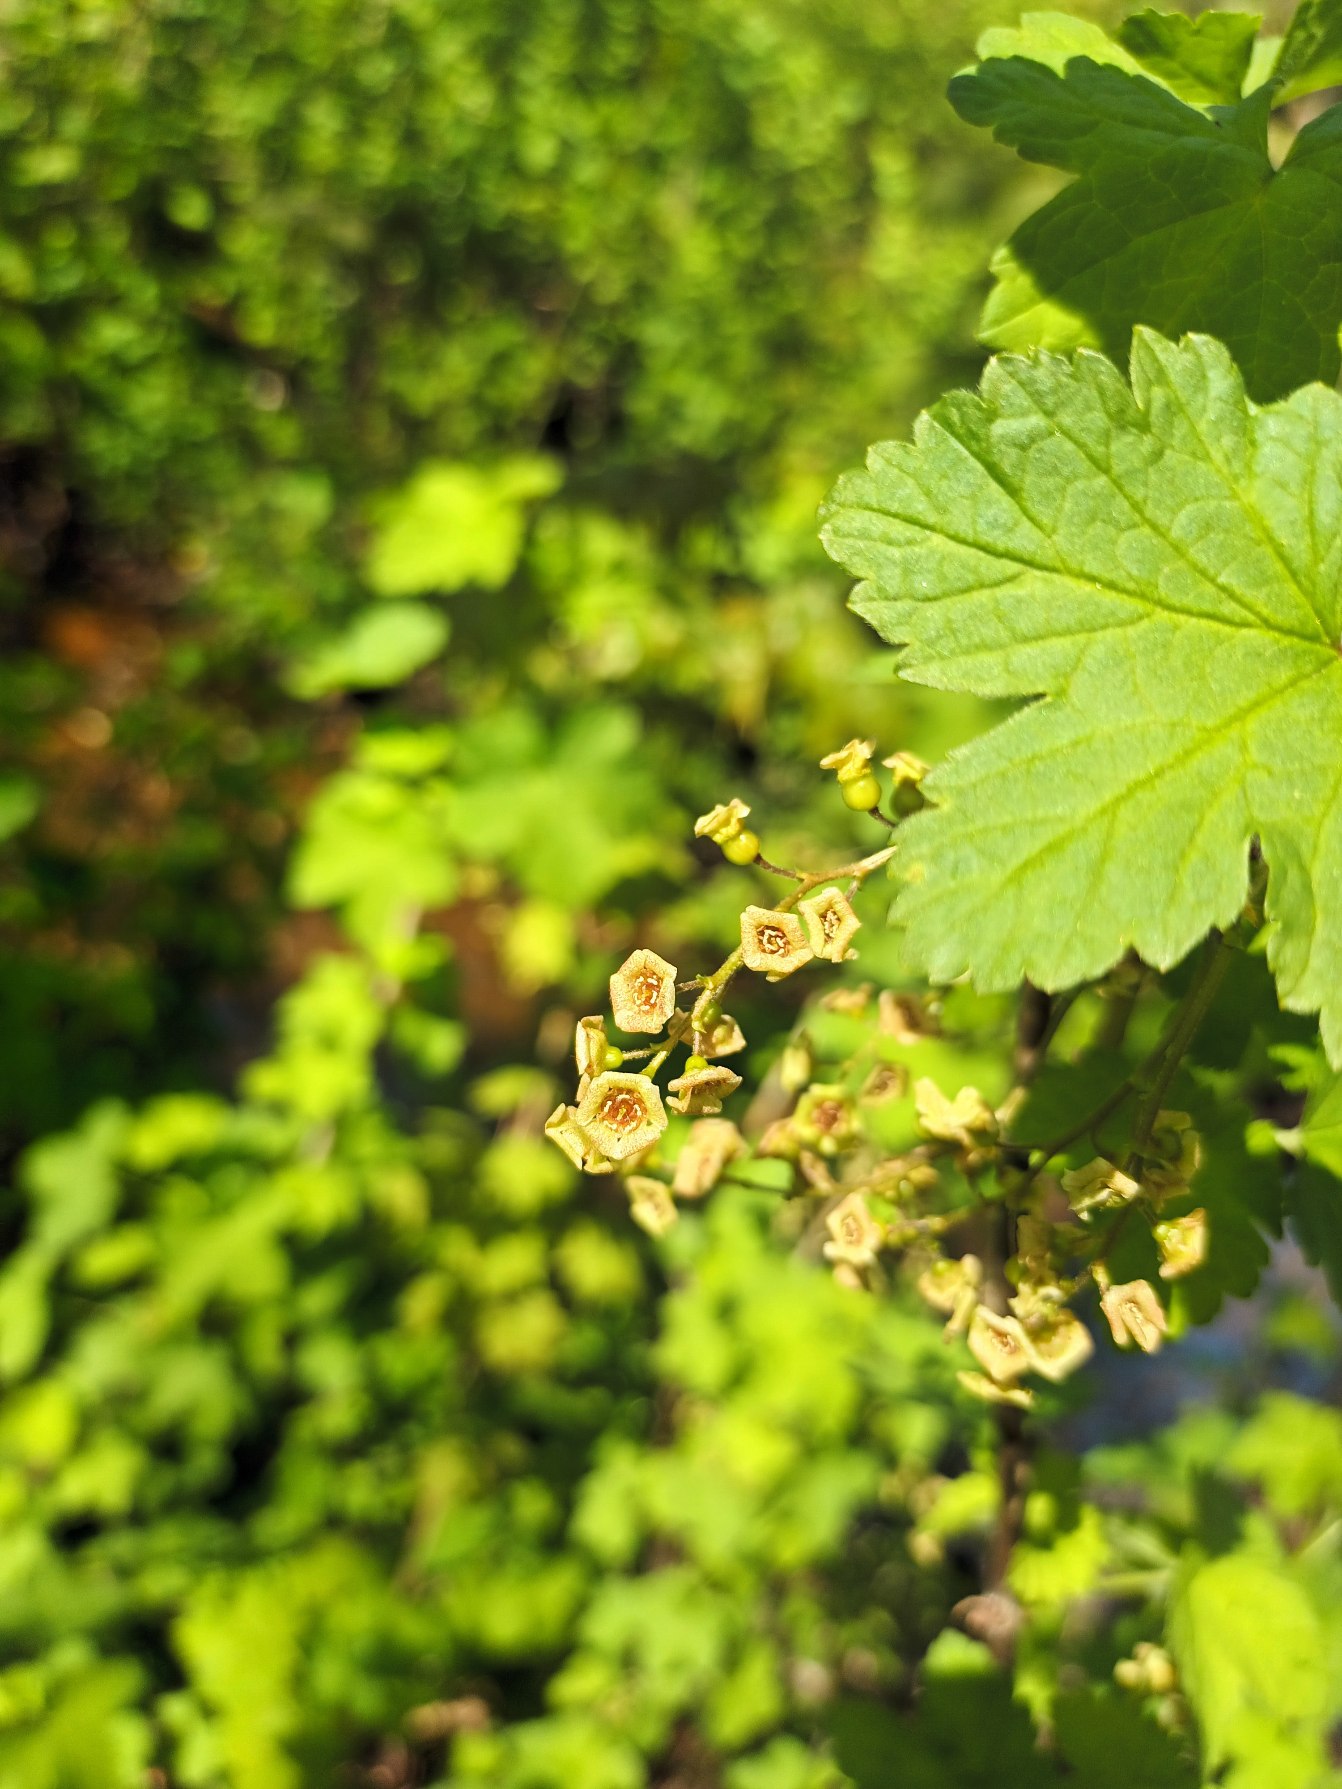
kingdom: Plantae
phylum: Tracheophyta
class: Magnoliopsida
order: Saxifragales
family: Grossulariaceae
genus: Ribes
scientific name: Ribes rubrum
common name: Have-ribs
